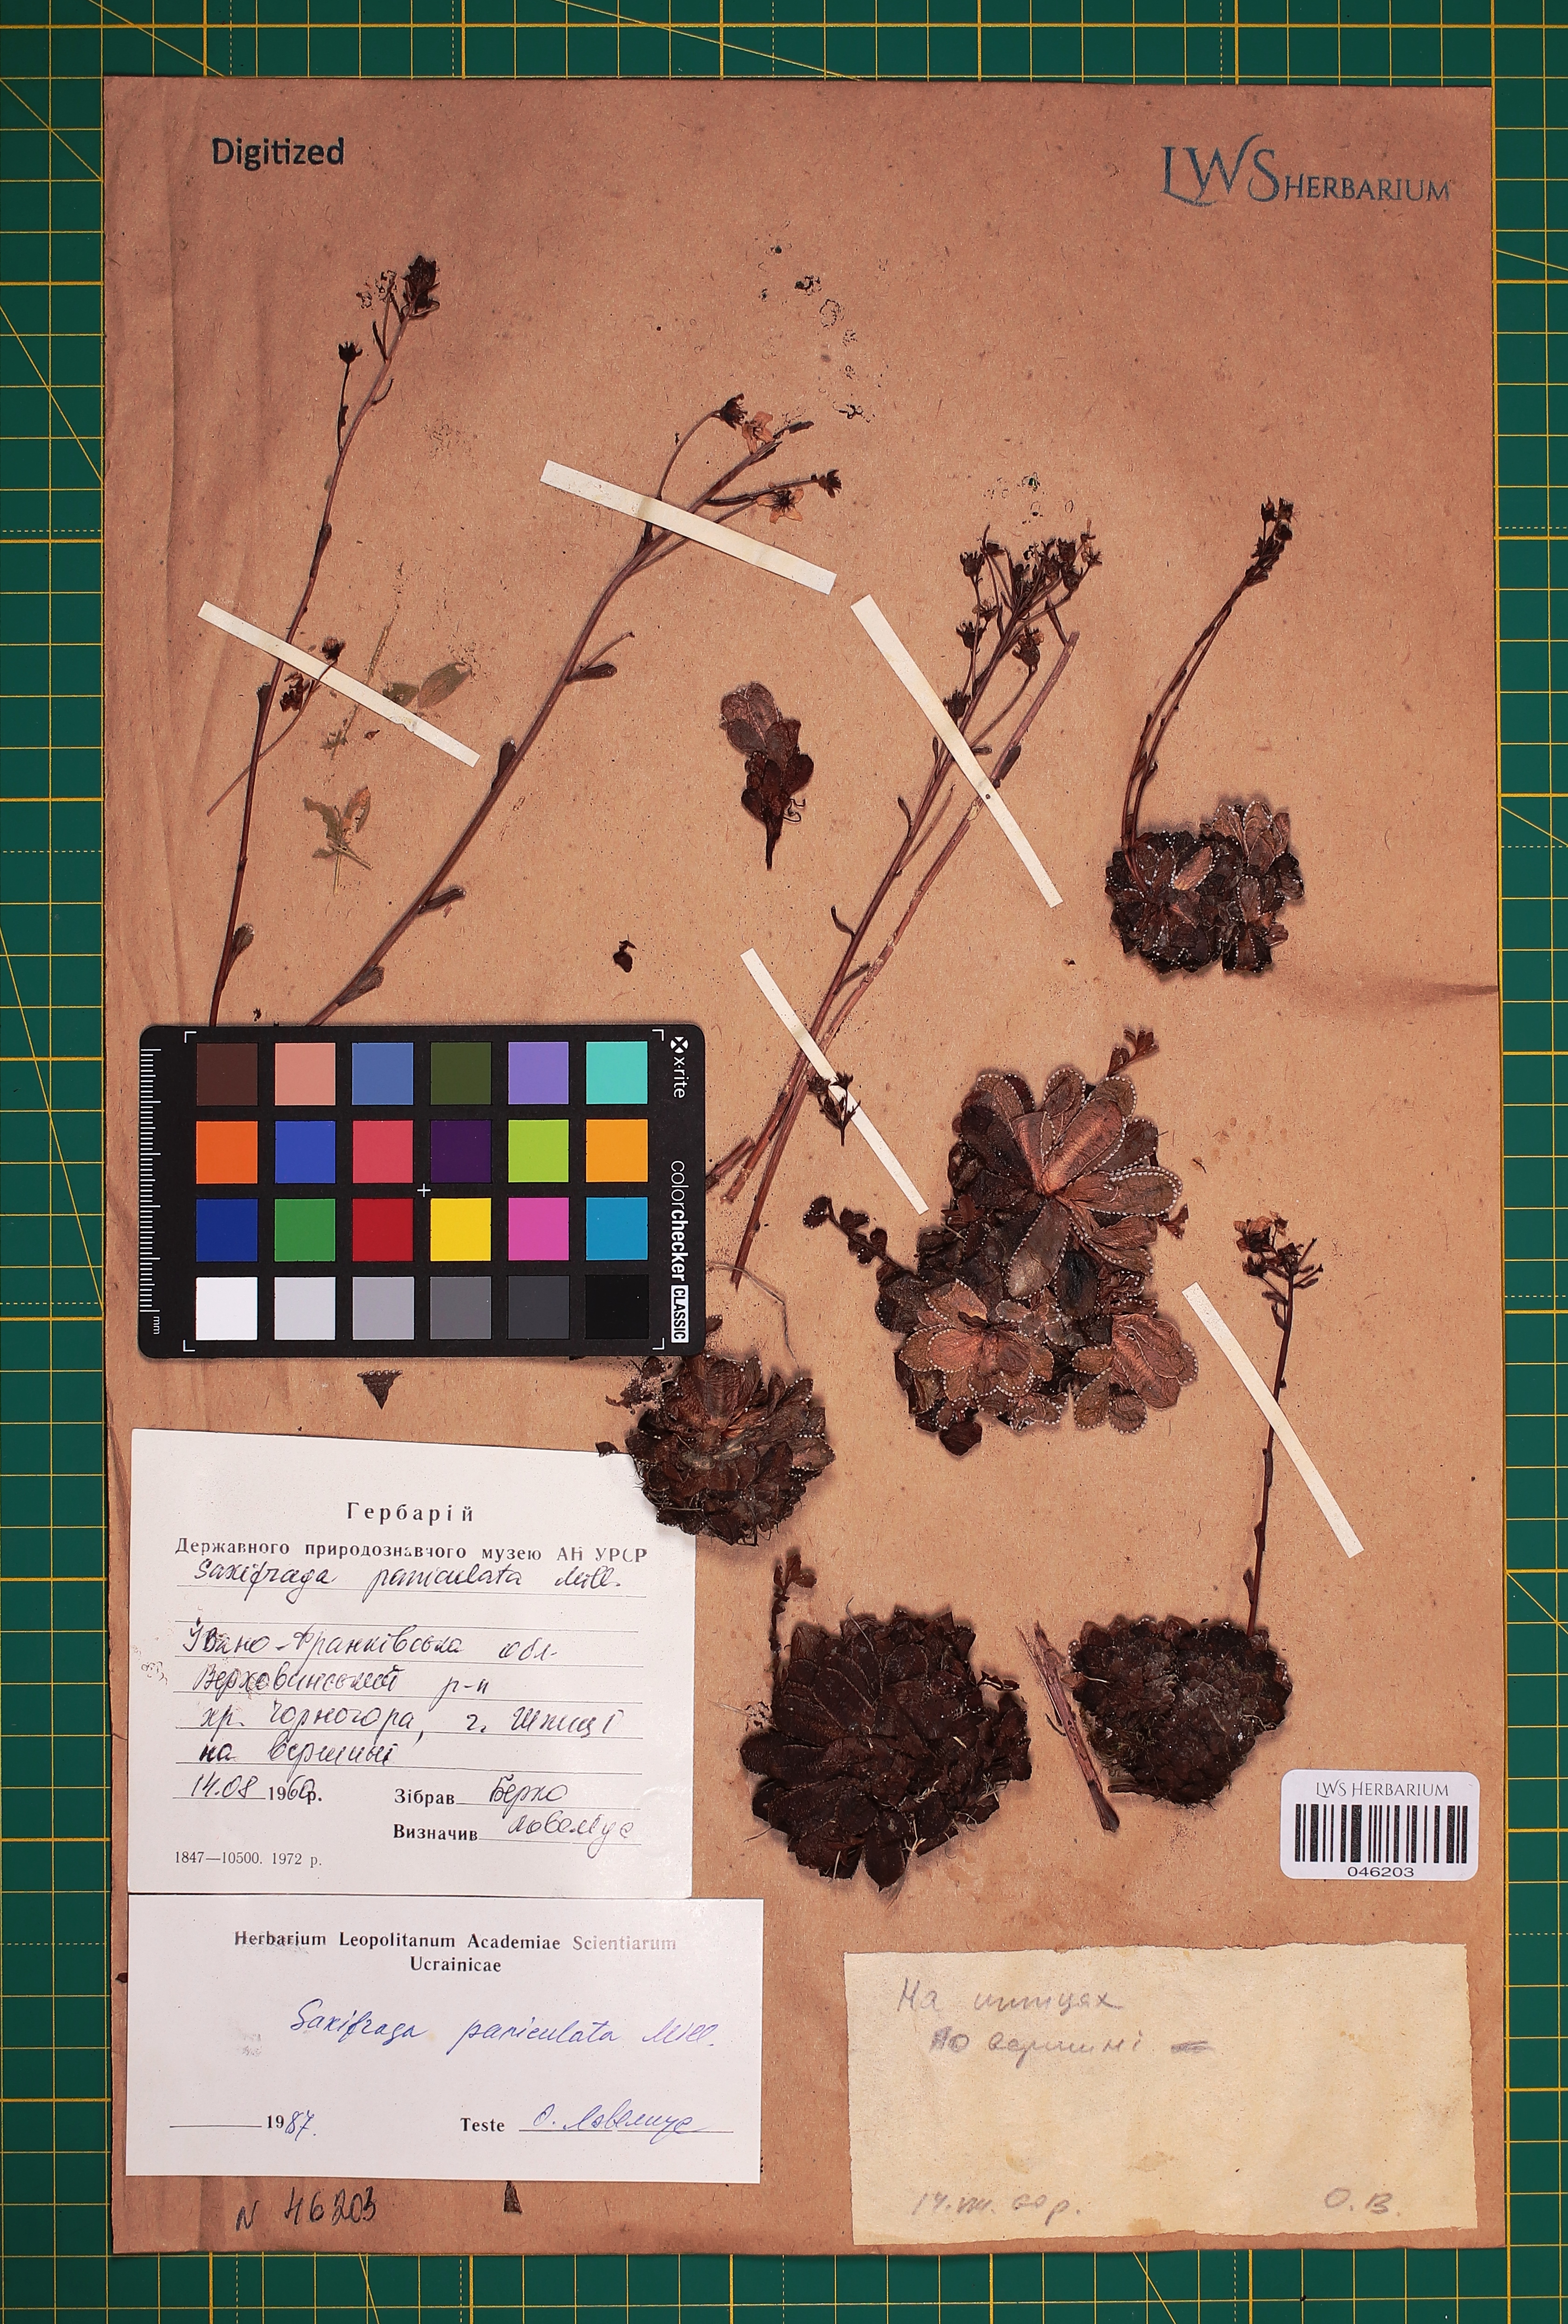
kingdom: Plantae
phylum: Tracheophyta
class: Magnoliopsida
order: Saxifragales
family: Saxifragaceae
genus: Saxifraga
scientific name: Saxifraga paniculata
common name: Livelong saxifrage
